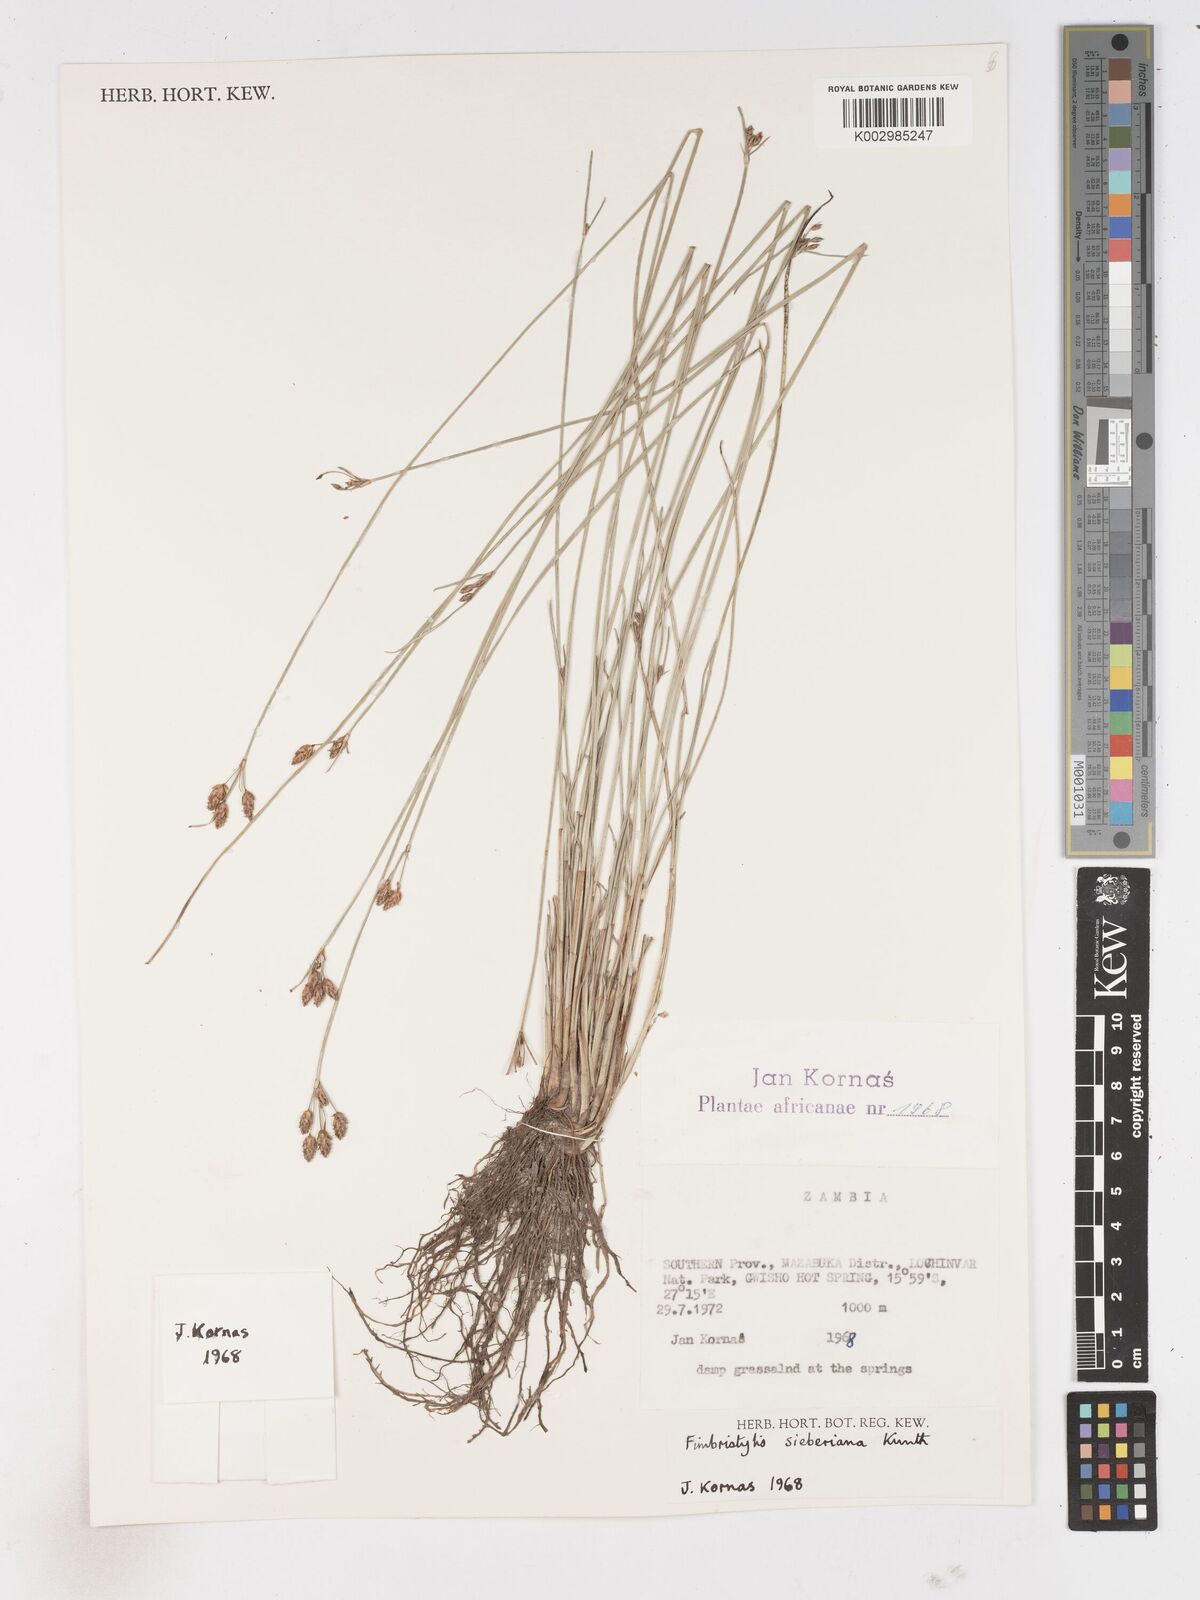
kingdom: Plantae
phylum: Tracheophyta
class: Liliopsida
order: Poales
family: Cyperaceae
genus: Fimbristylis
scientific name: Fimbristylis ferruginea
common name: West indian fimbry
